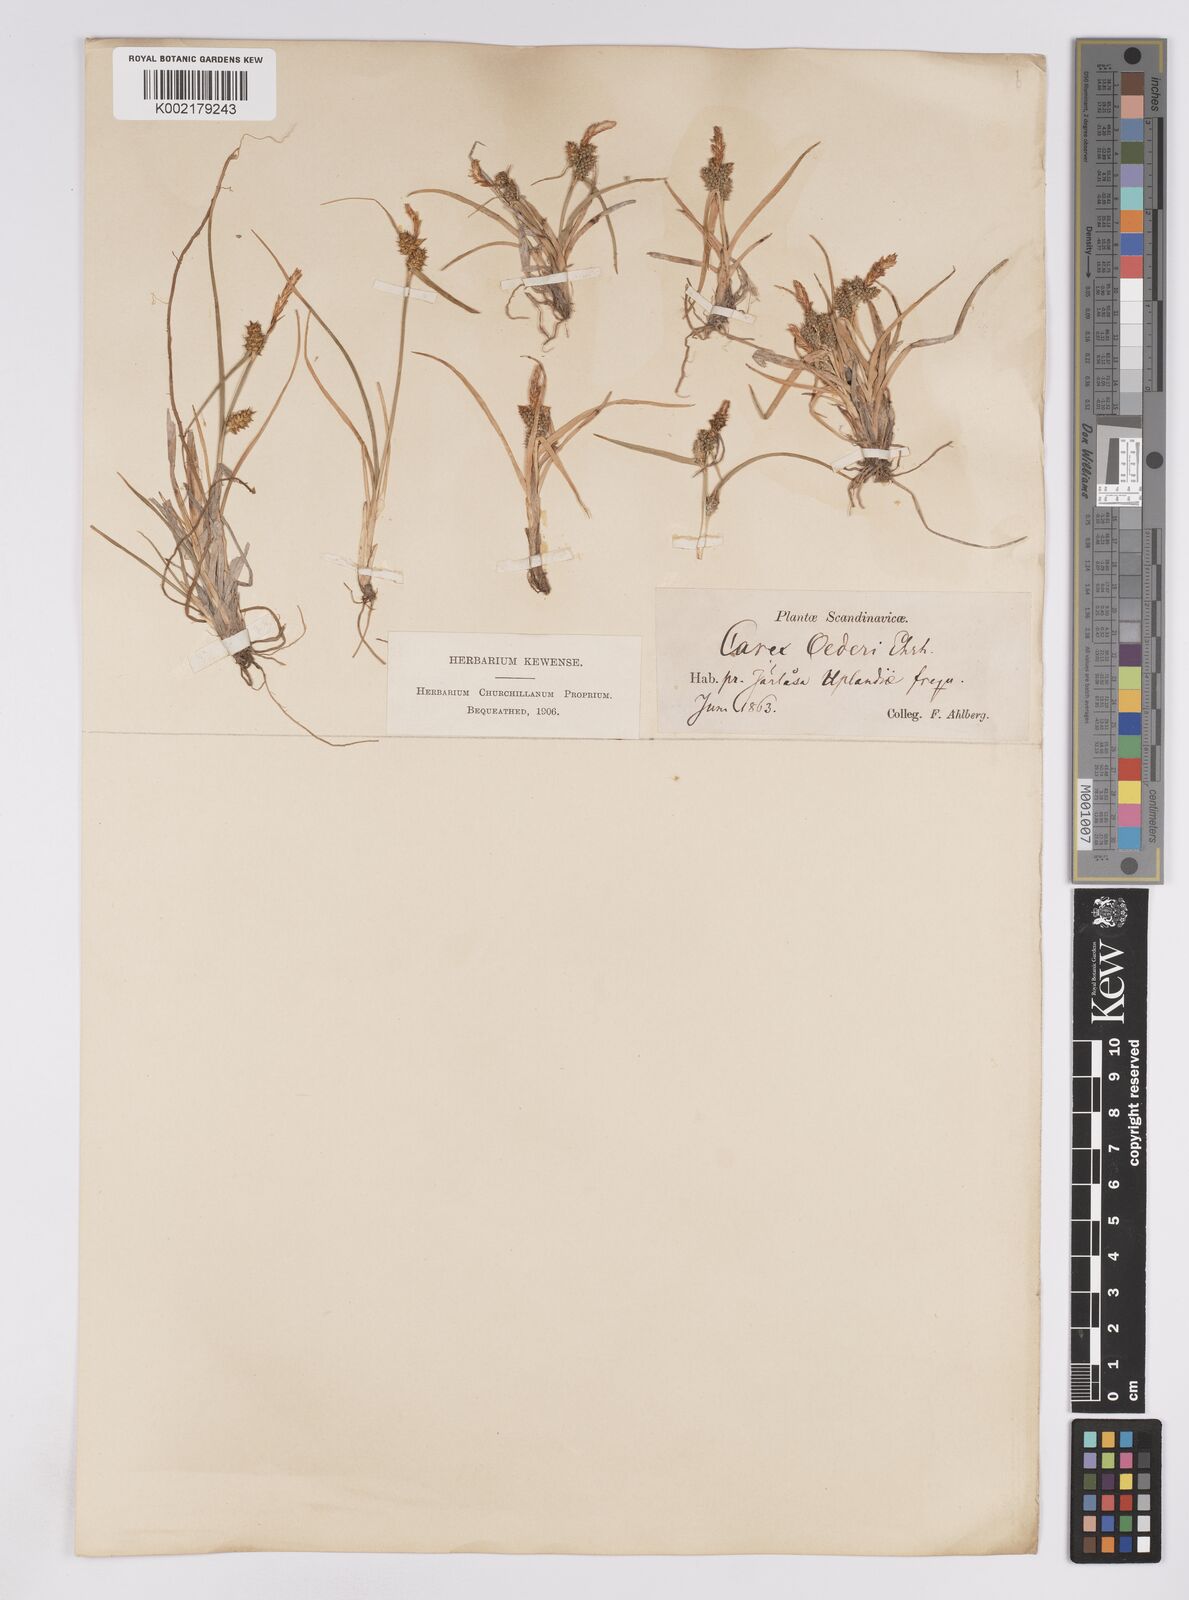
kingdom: Plantae
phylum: Tracheophyta
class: Liliopsida
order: Poales
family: Cyperaceae
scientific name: Cyperaceae
